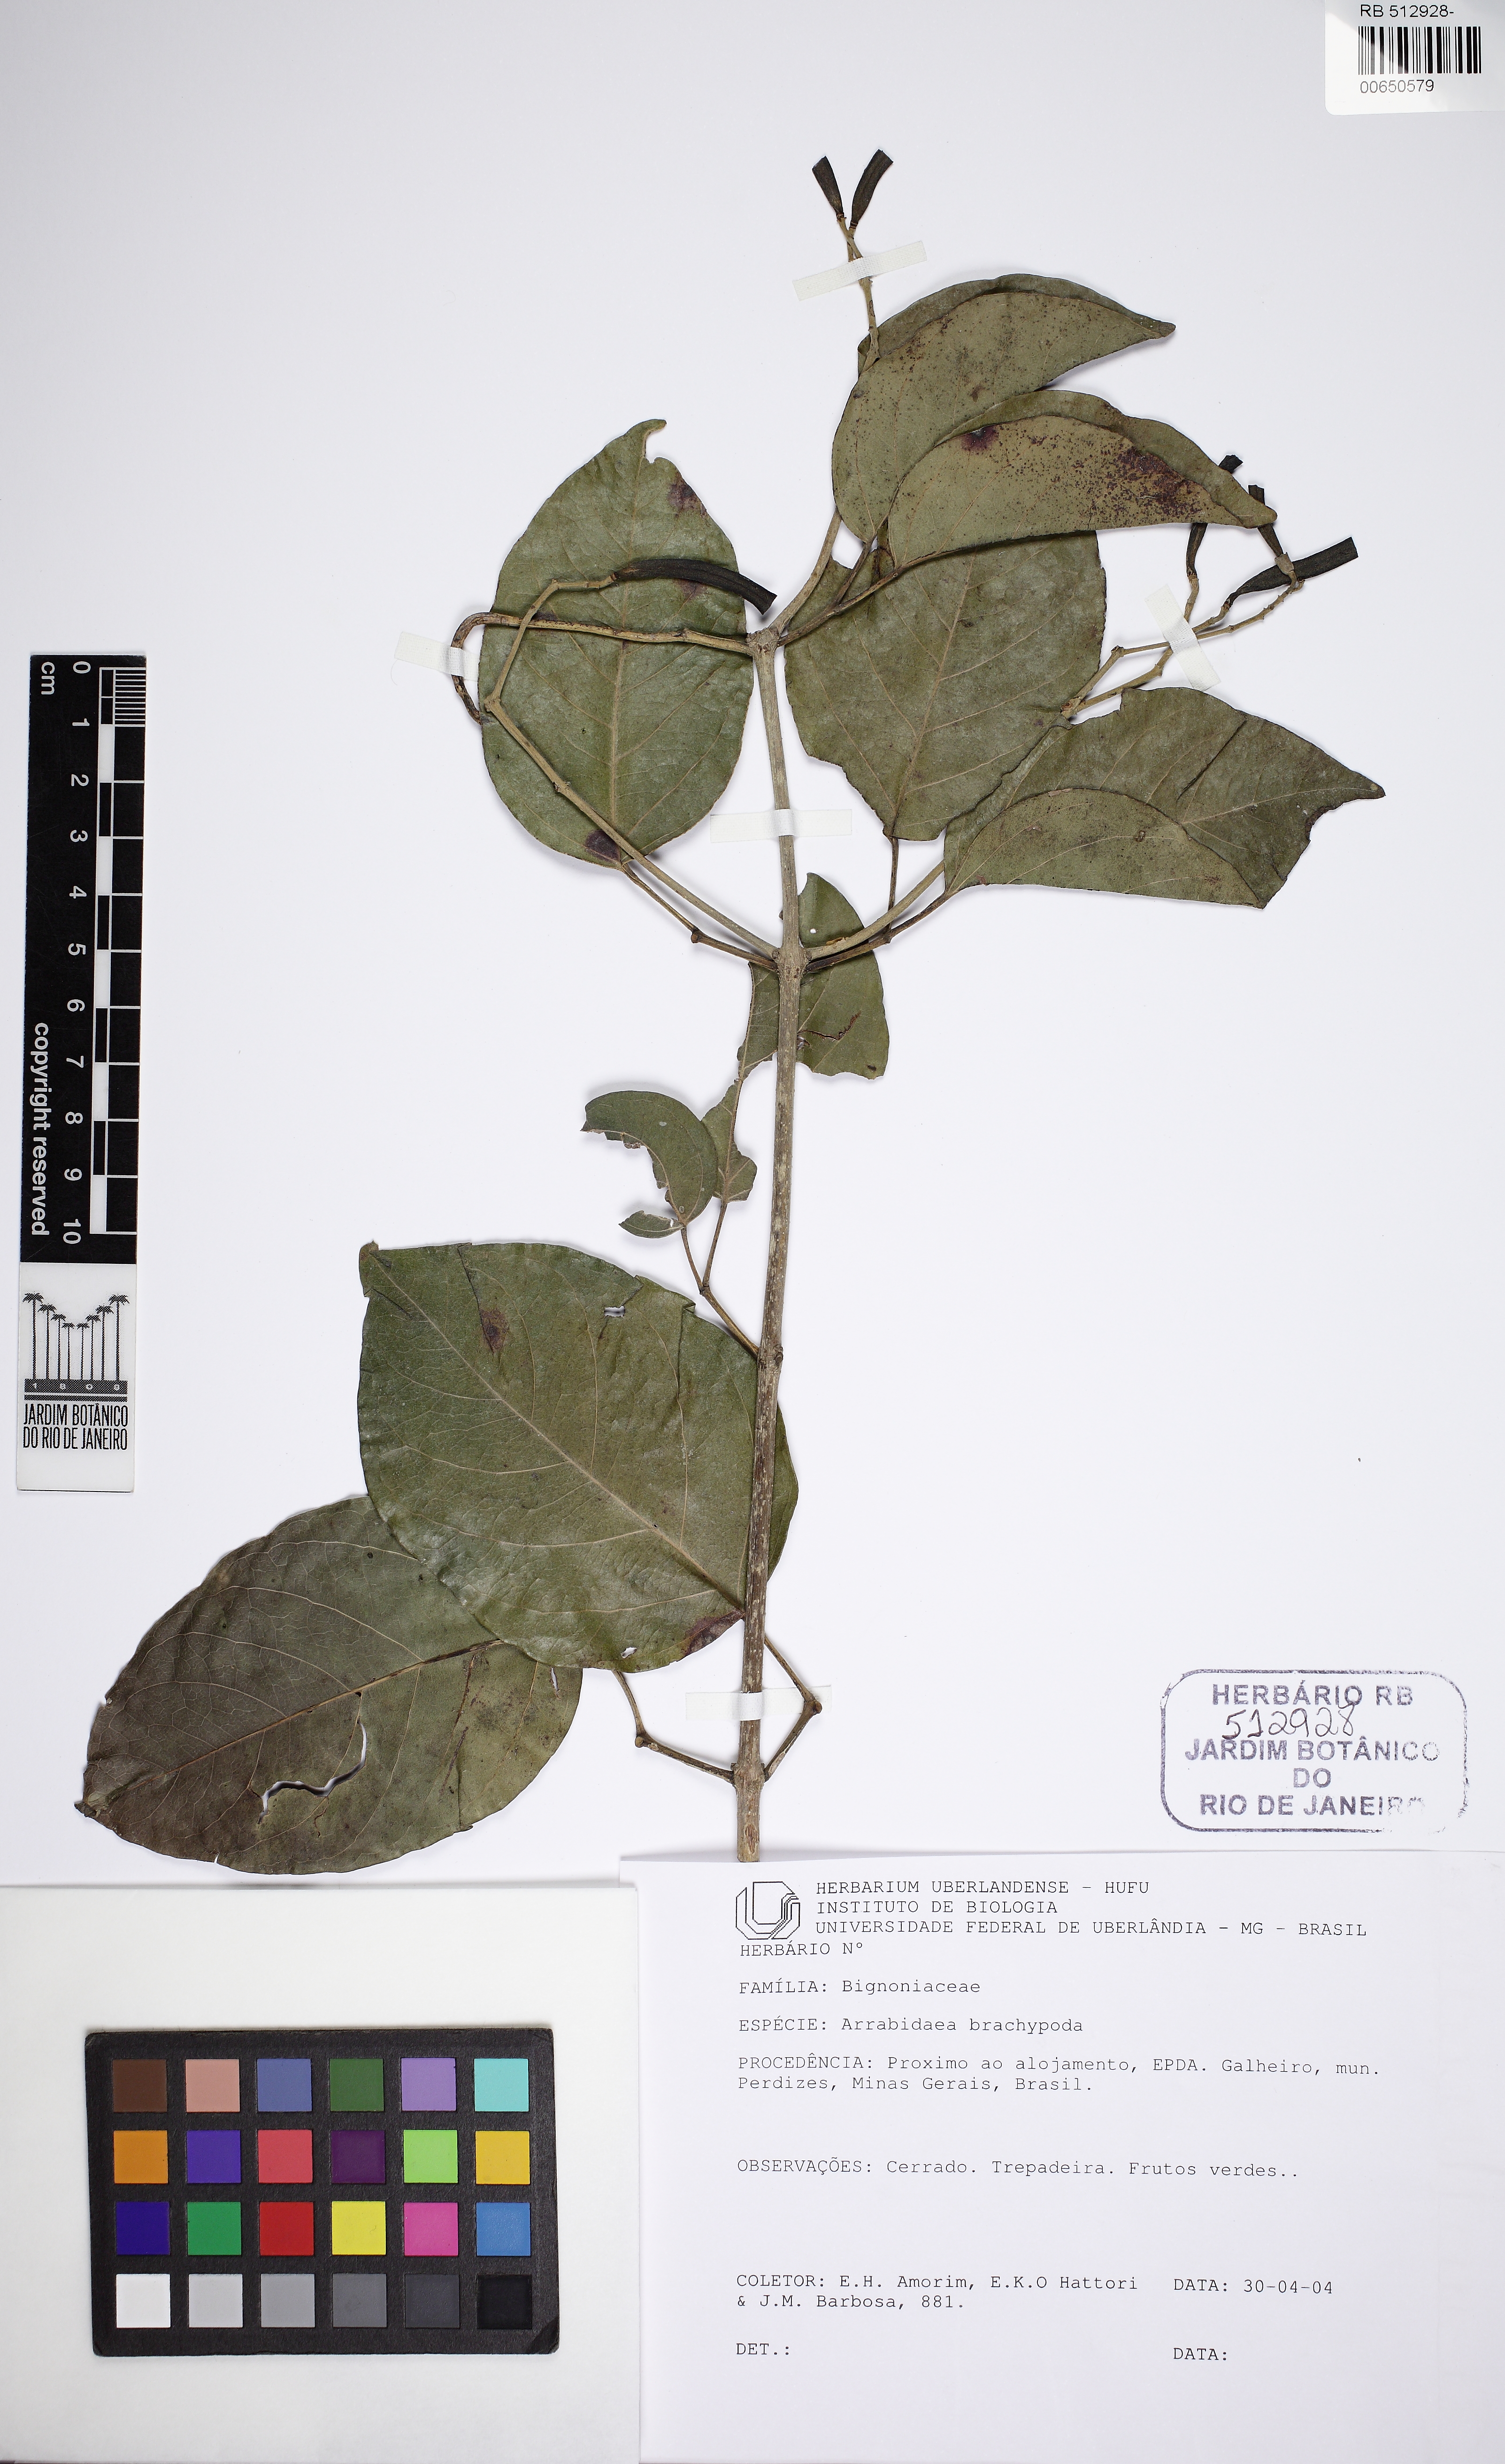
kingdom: Plantae
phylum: Tracheophyta
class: Magnoliopsida
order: Lamiales
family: Bignoniaceae
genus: Fridericia
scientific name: Fridericia platyphylla
